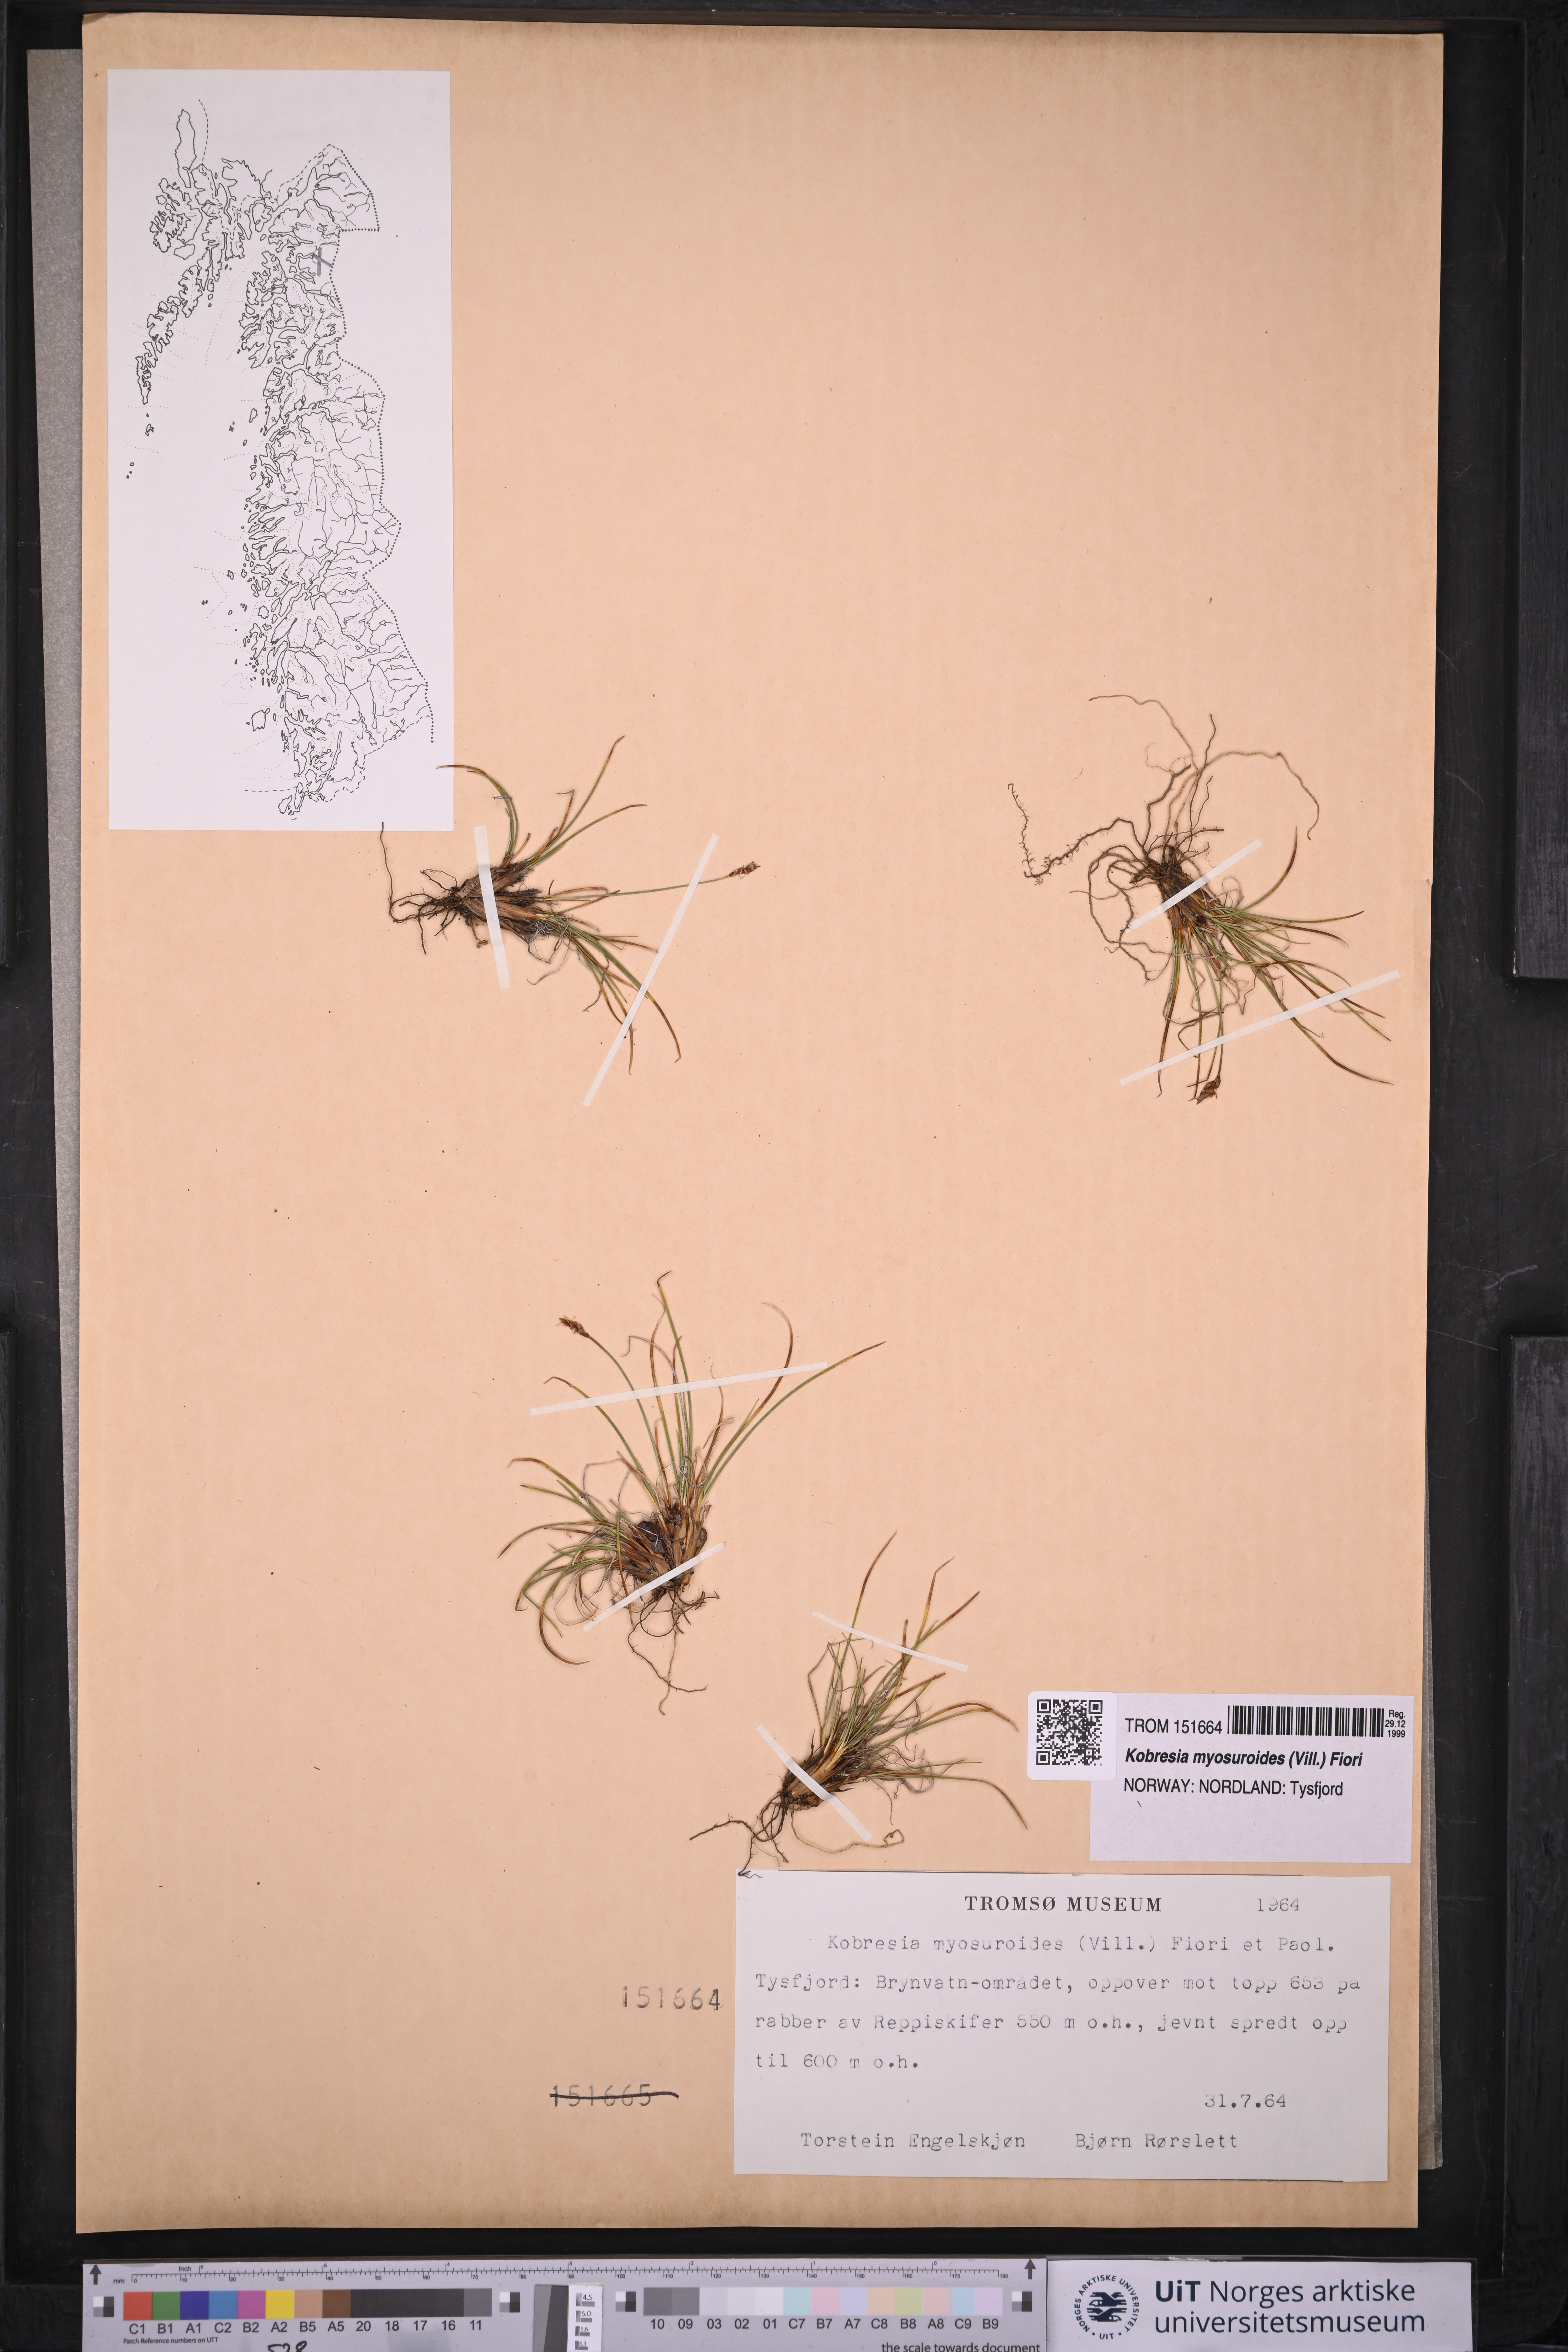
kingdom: Plantae
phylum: Tracheophyta
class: Liliopsida
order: Poales
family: Cyperaceae
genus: Carex
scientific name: Carex myosuroides
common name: Bellard's bog sedge
